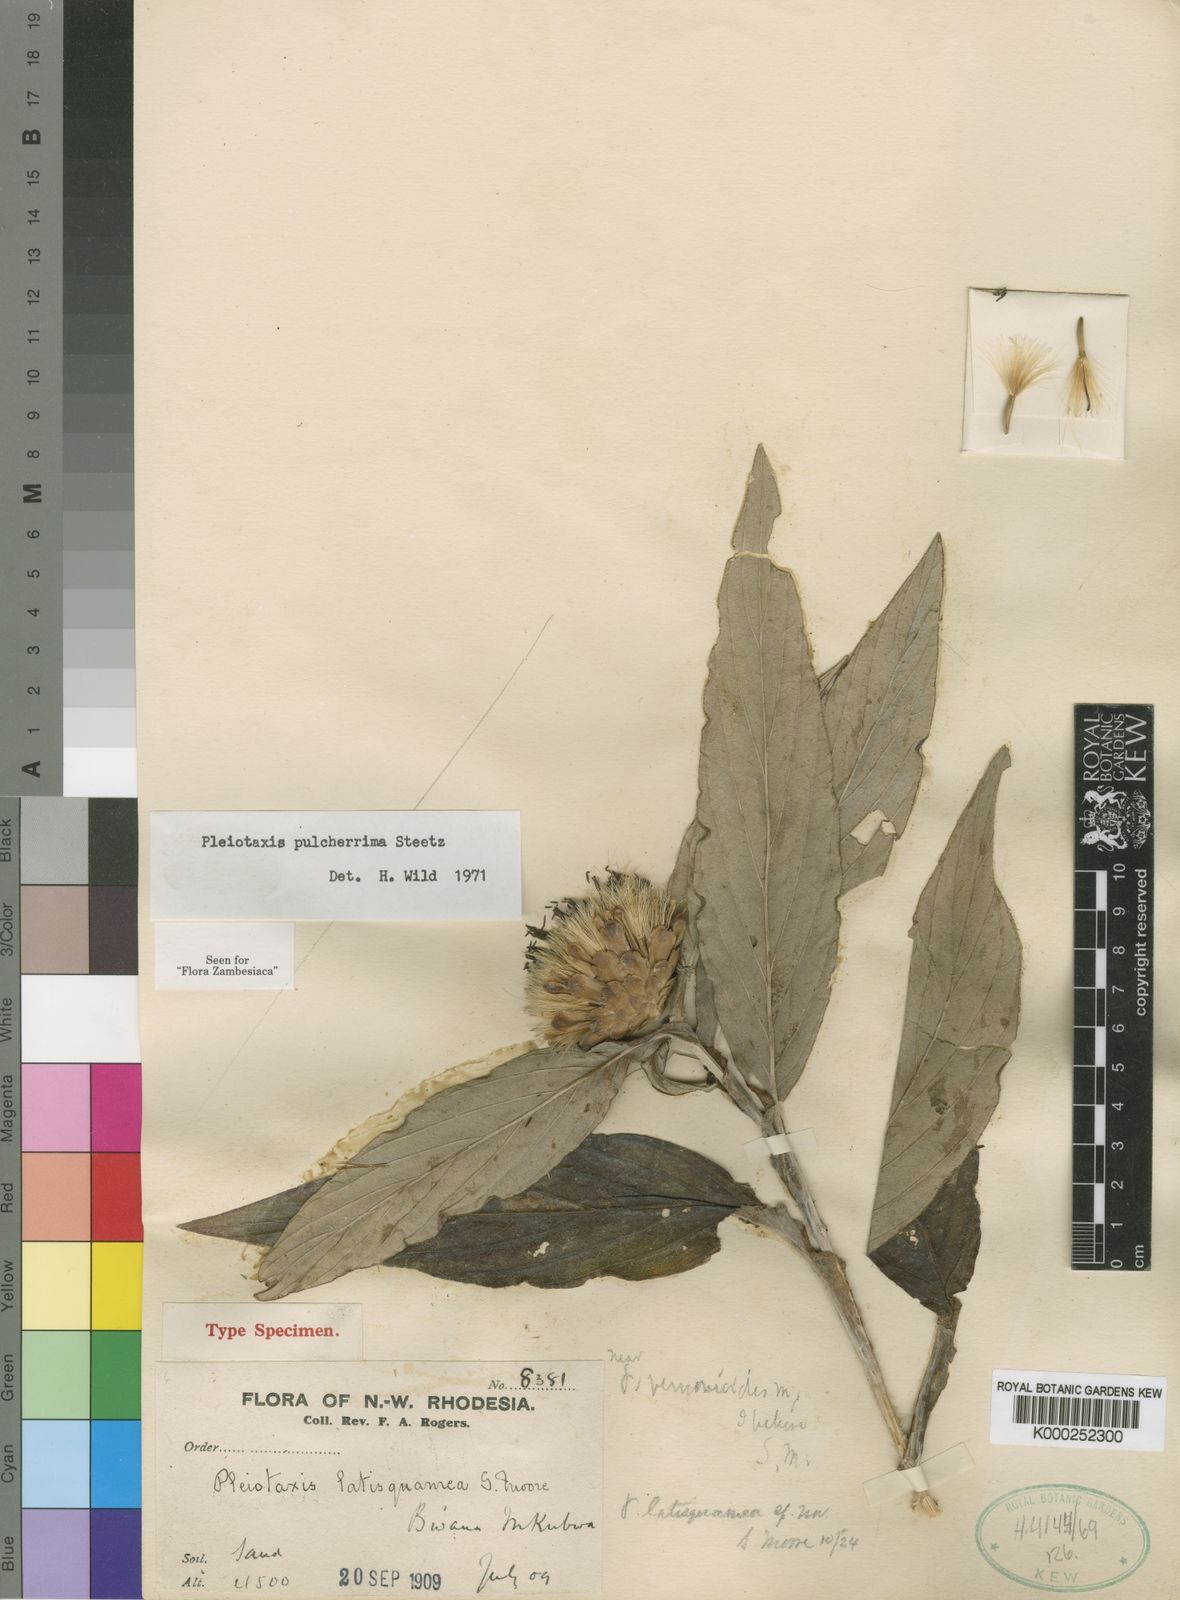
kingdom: Plantae
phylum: Tracheophyta
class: Magnoliopsida
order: Asterales
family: Asteraceae
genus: Pleiotaxis
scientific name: Pleiotaxis pulcherrima
